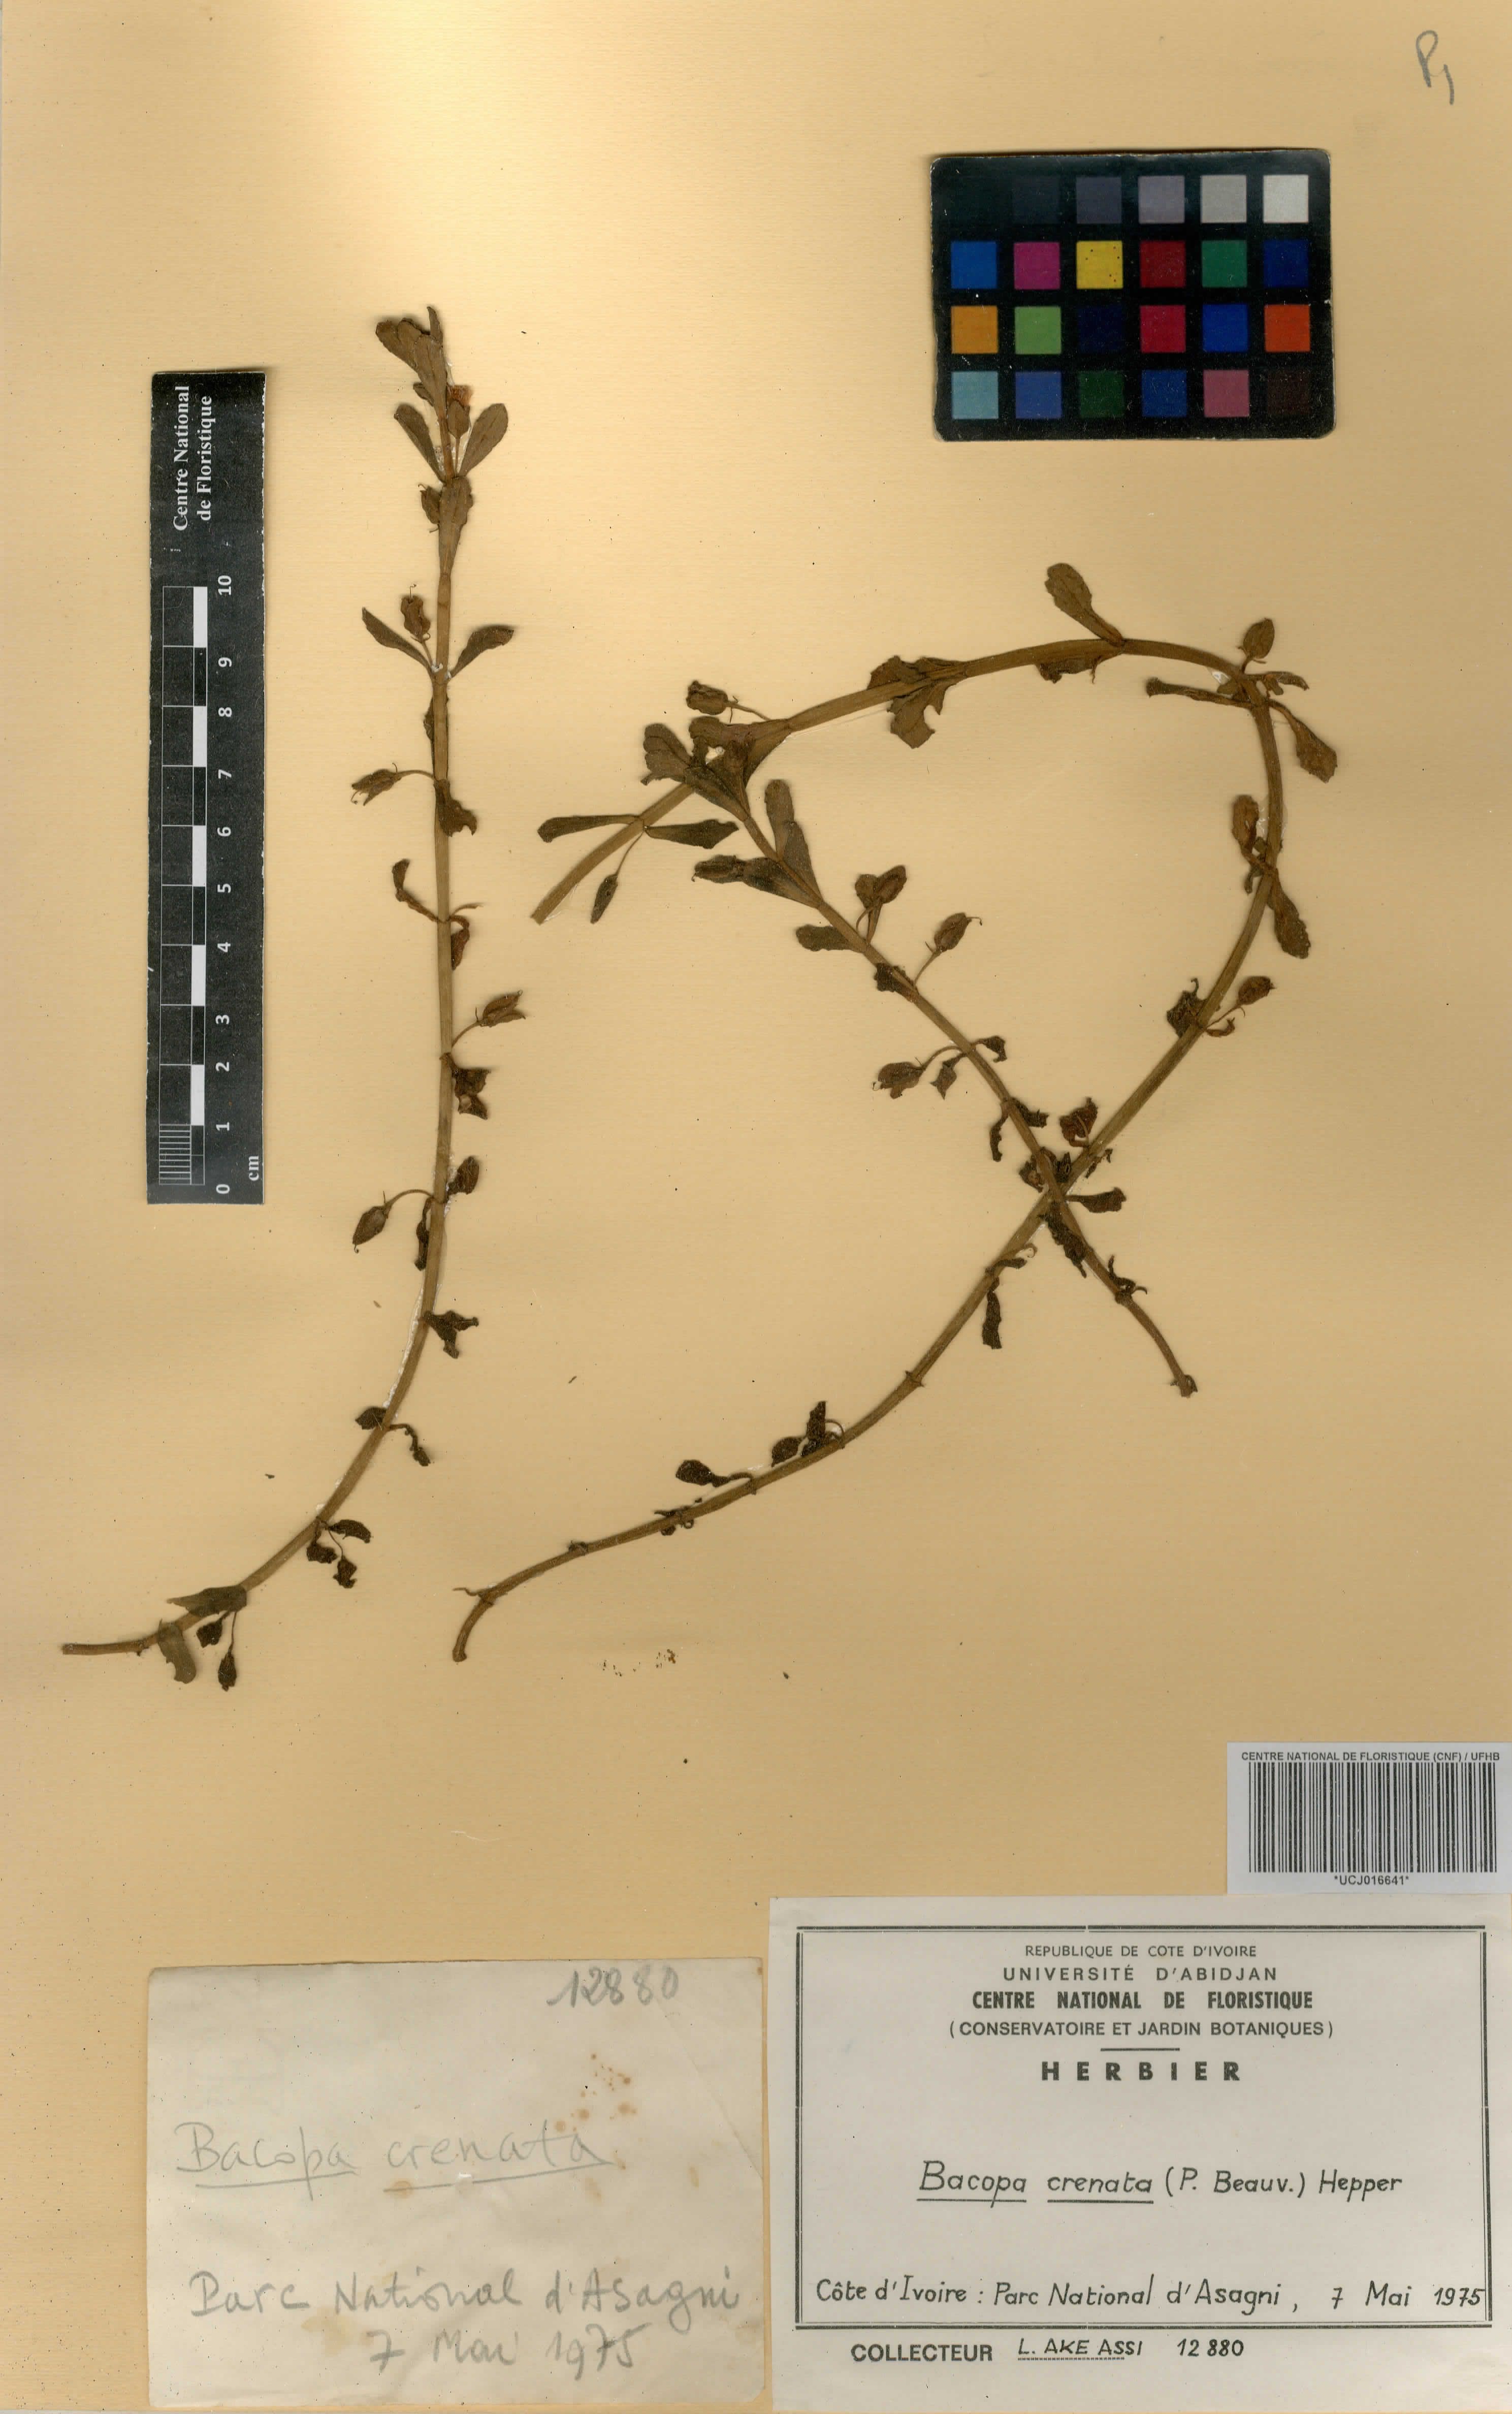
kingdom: Plantae
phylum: Tracheophyta
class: Magnoliopsida
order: Lamiales
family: Plantaginaceae
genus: Bacopa
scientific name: Bacopa crenata
